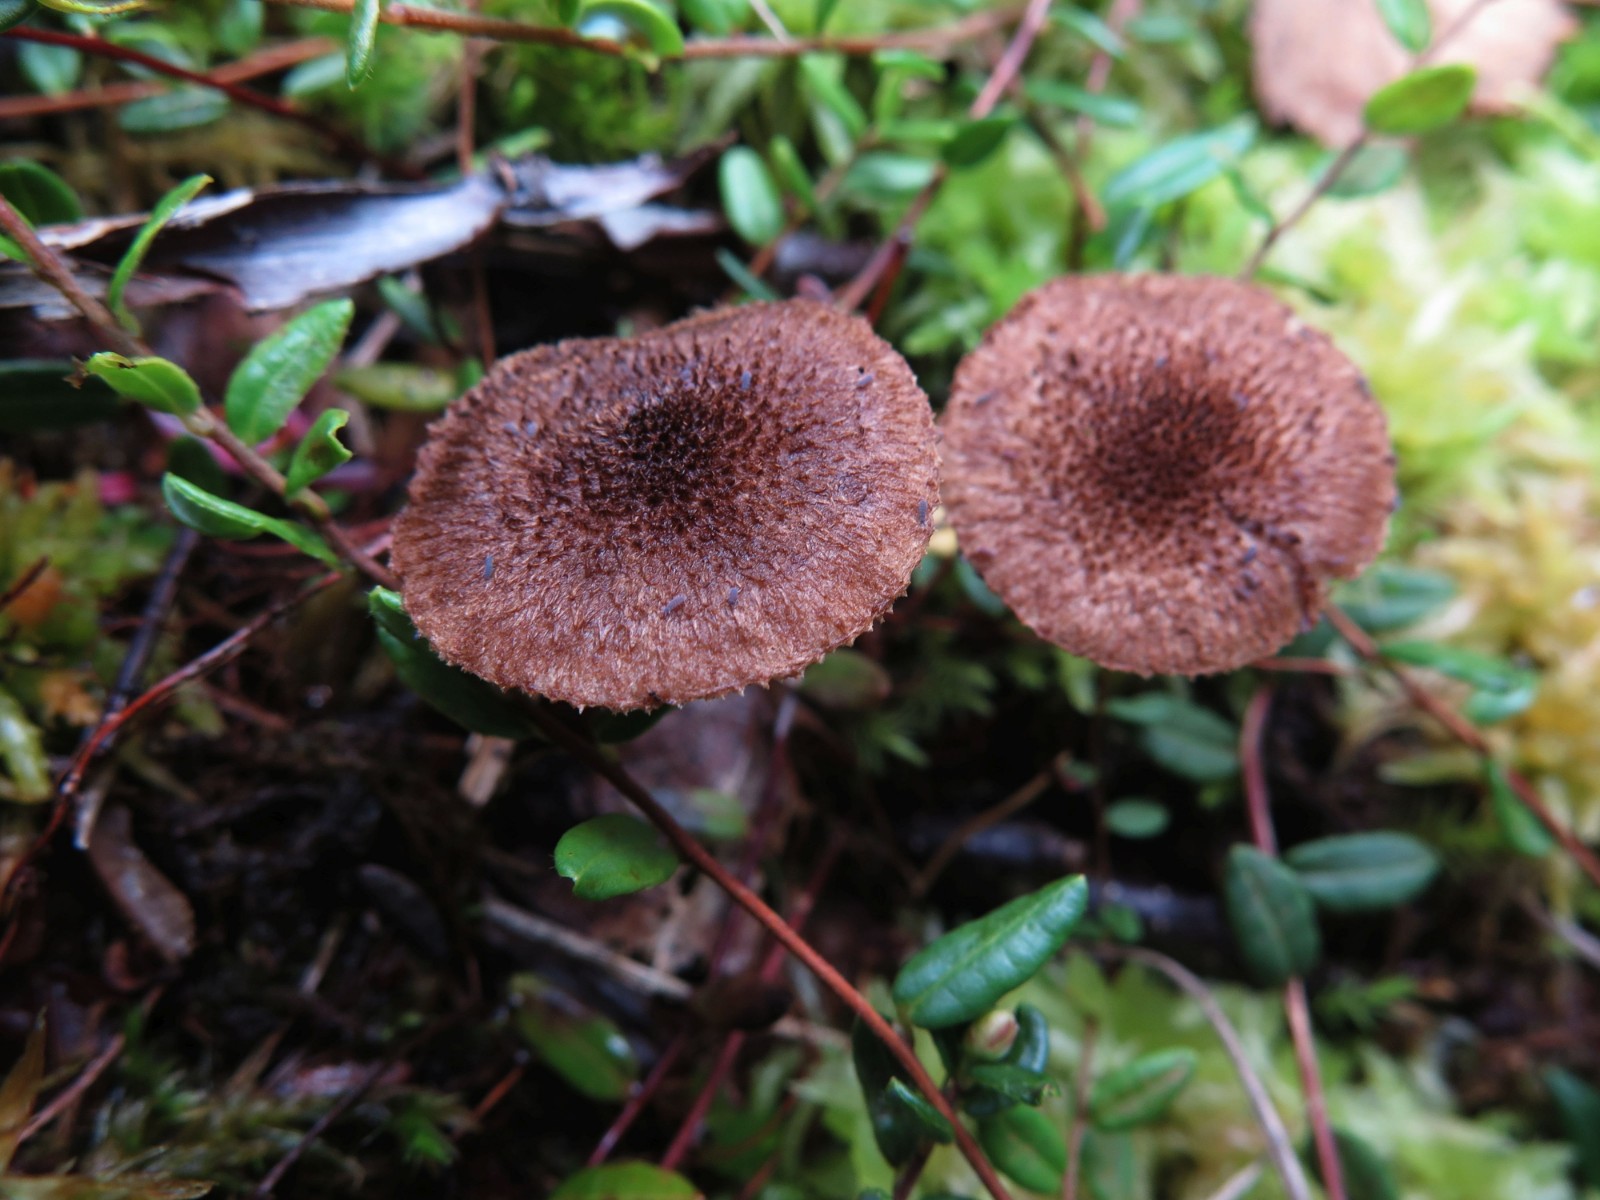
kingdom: Fungi
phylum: Basidiomycota
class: Agaricomycetes
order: Agaricales
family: Inocybaceae
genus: Inocybe
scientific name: Inocybe leptophylla
